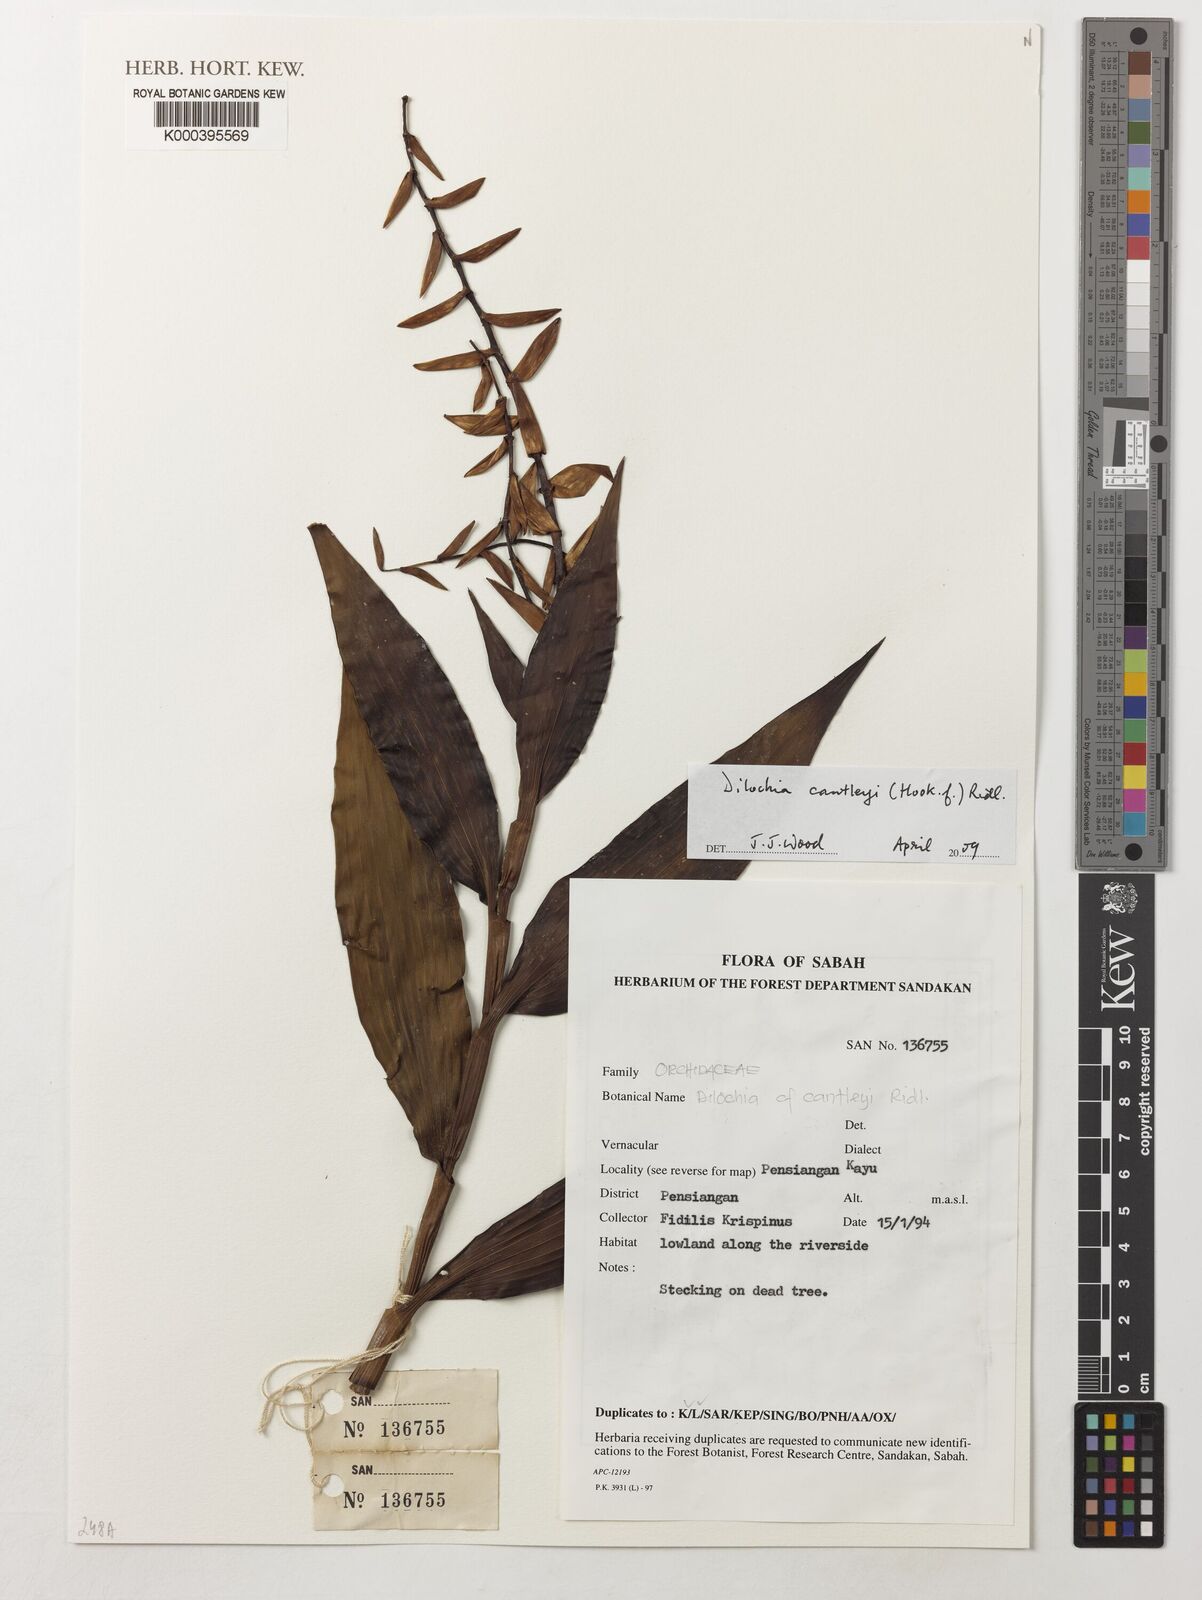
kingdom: Plantae
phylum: Tracheophyta
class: Liliopsida
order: Asparagales
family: Orchidaceae
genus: Dilochia
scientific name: Dilochia cantleyi
